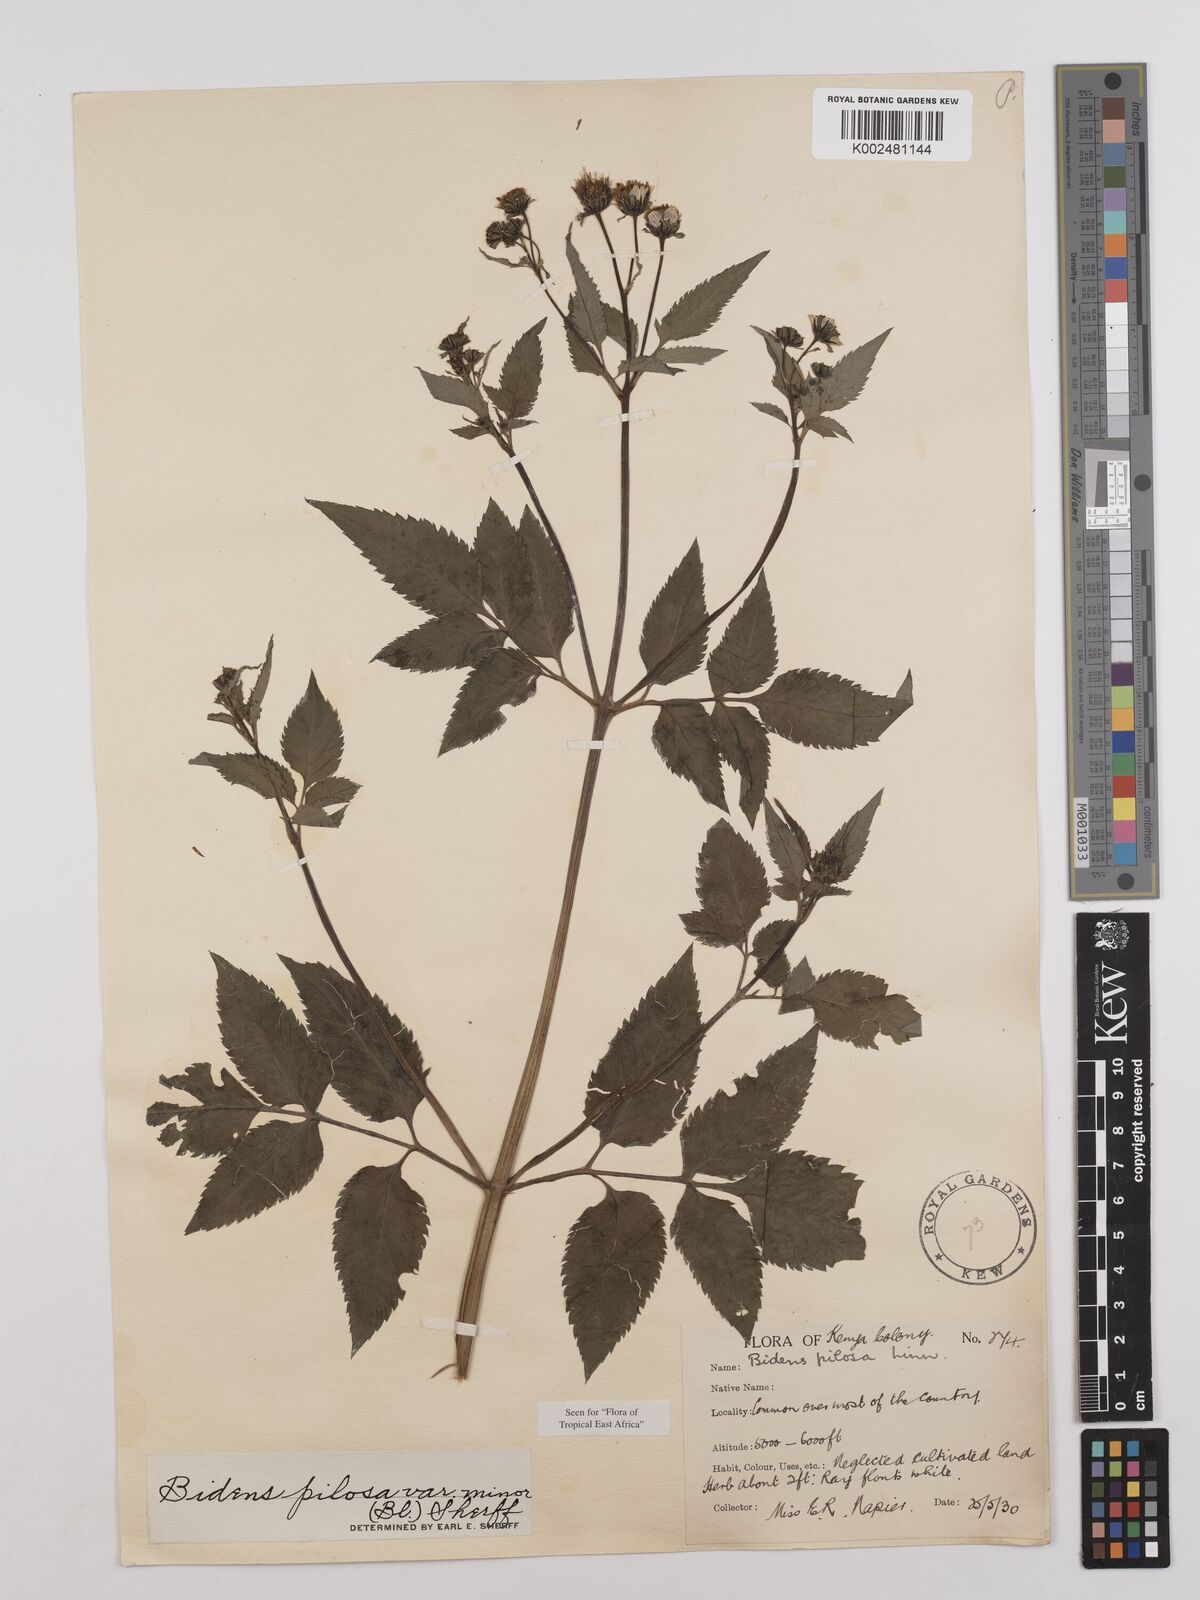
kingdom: Plantae
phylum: Tracheophyta
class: Magnoliopsida
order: Asterales
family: Asteraceae
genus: Bidens
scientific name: Bidens pilosa
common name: Black-jack
